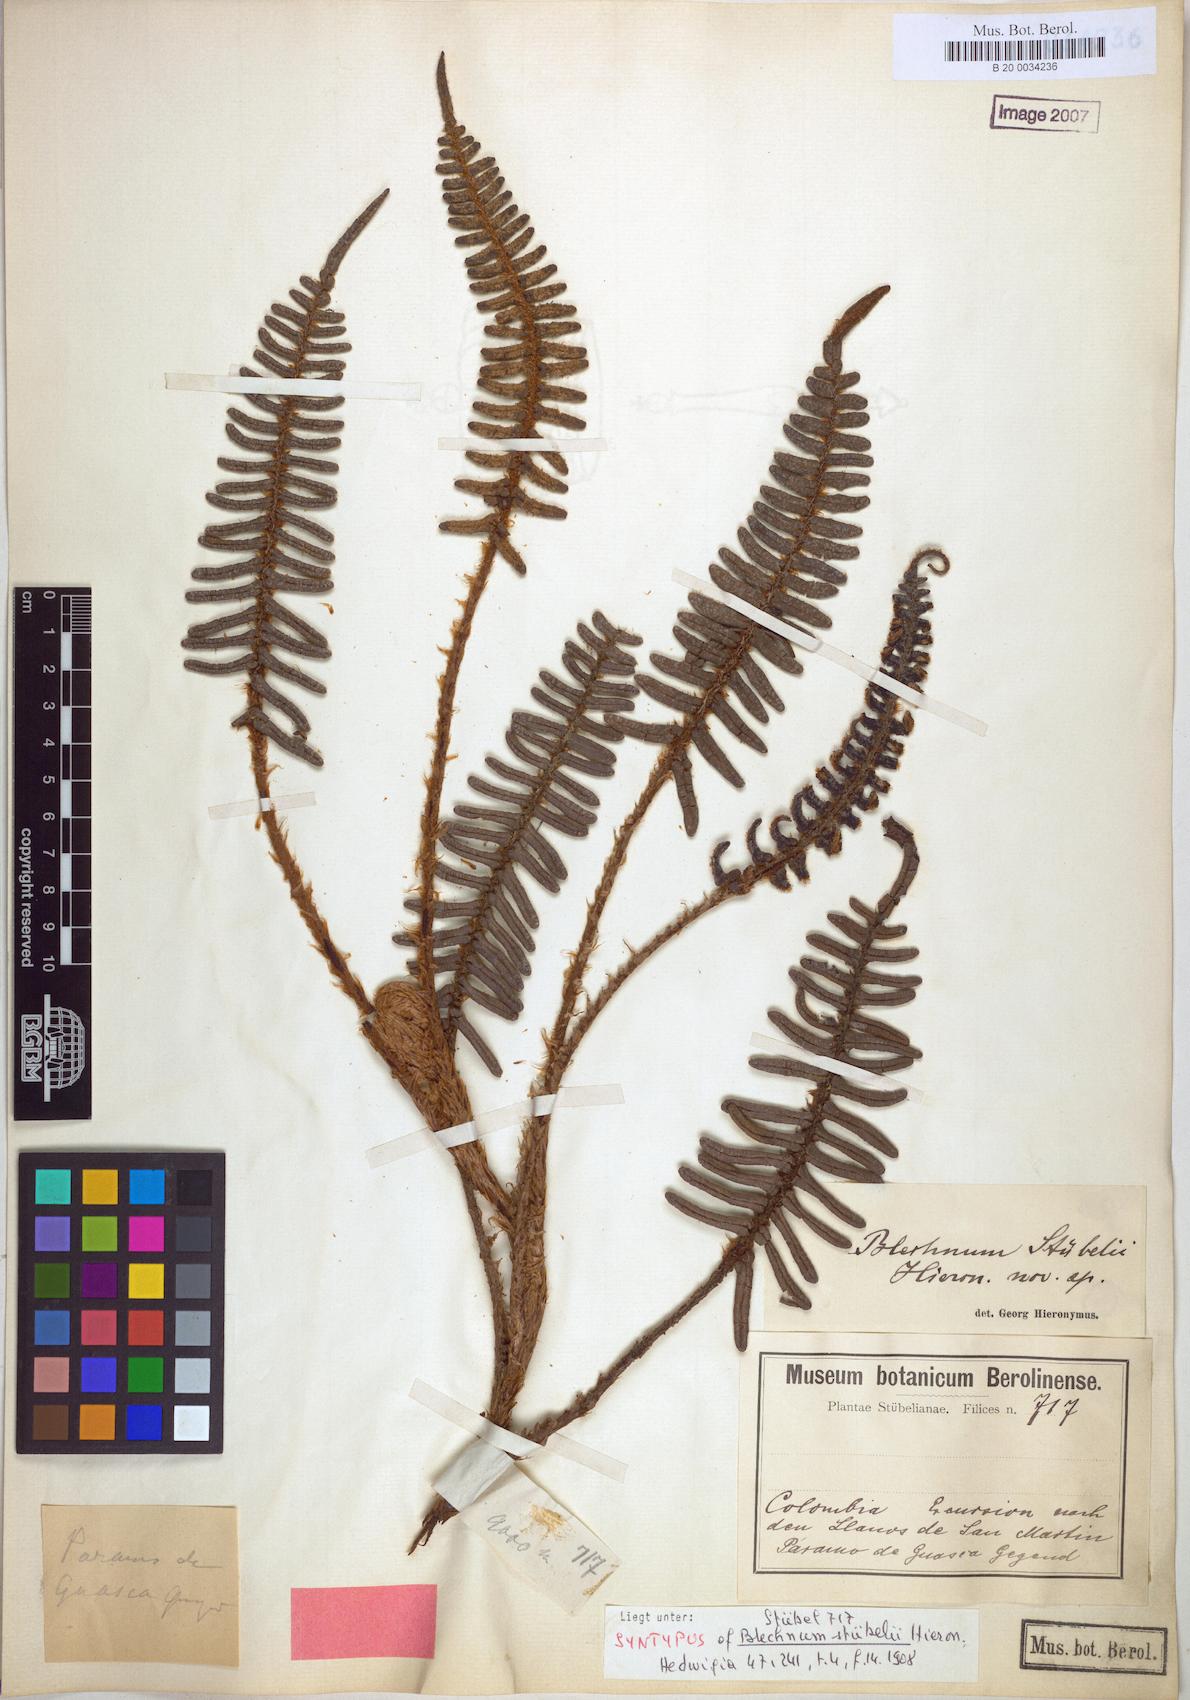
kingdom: Plantae
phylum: Tracheophyta
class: Polypodiopsida
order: Polypodiales
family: Blechnaceae
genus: Parablechnum
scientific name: Parablechnum stuebelii
